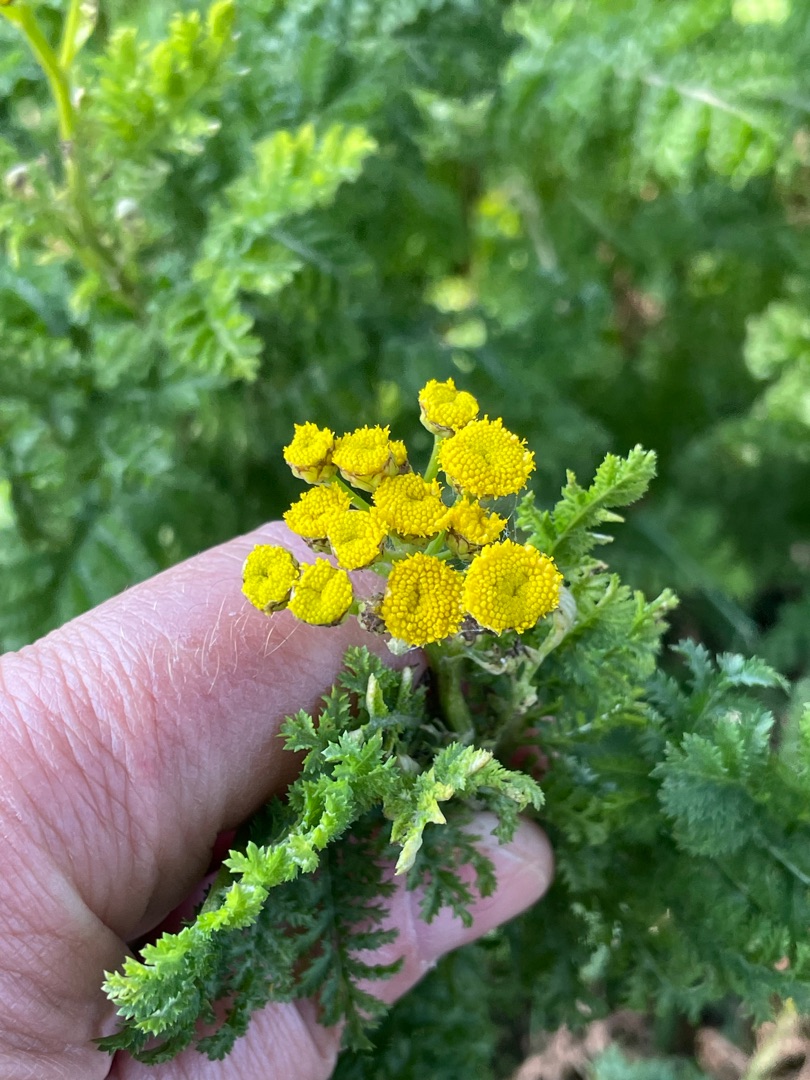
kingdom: Plantae
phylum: Tracheophyta
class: Magnoliopsida
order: Asterales
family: Asteraceae
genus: Tanacetum
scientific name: Tanacetum vulgare
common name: Rejnfan
